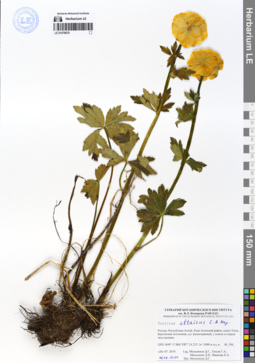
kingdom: Plantae
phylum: Tracheophyta
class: Magnoliopsida
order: Ranunculales
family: Ranunculaceae
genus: Trollius
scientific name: Trollius altaicus
